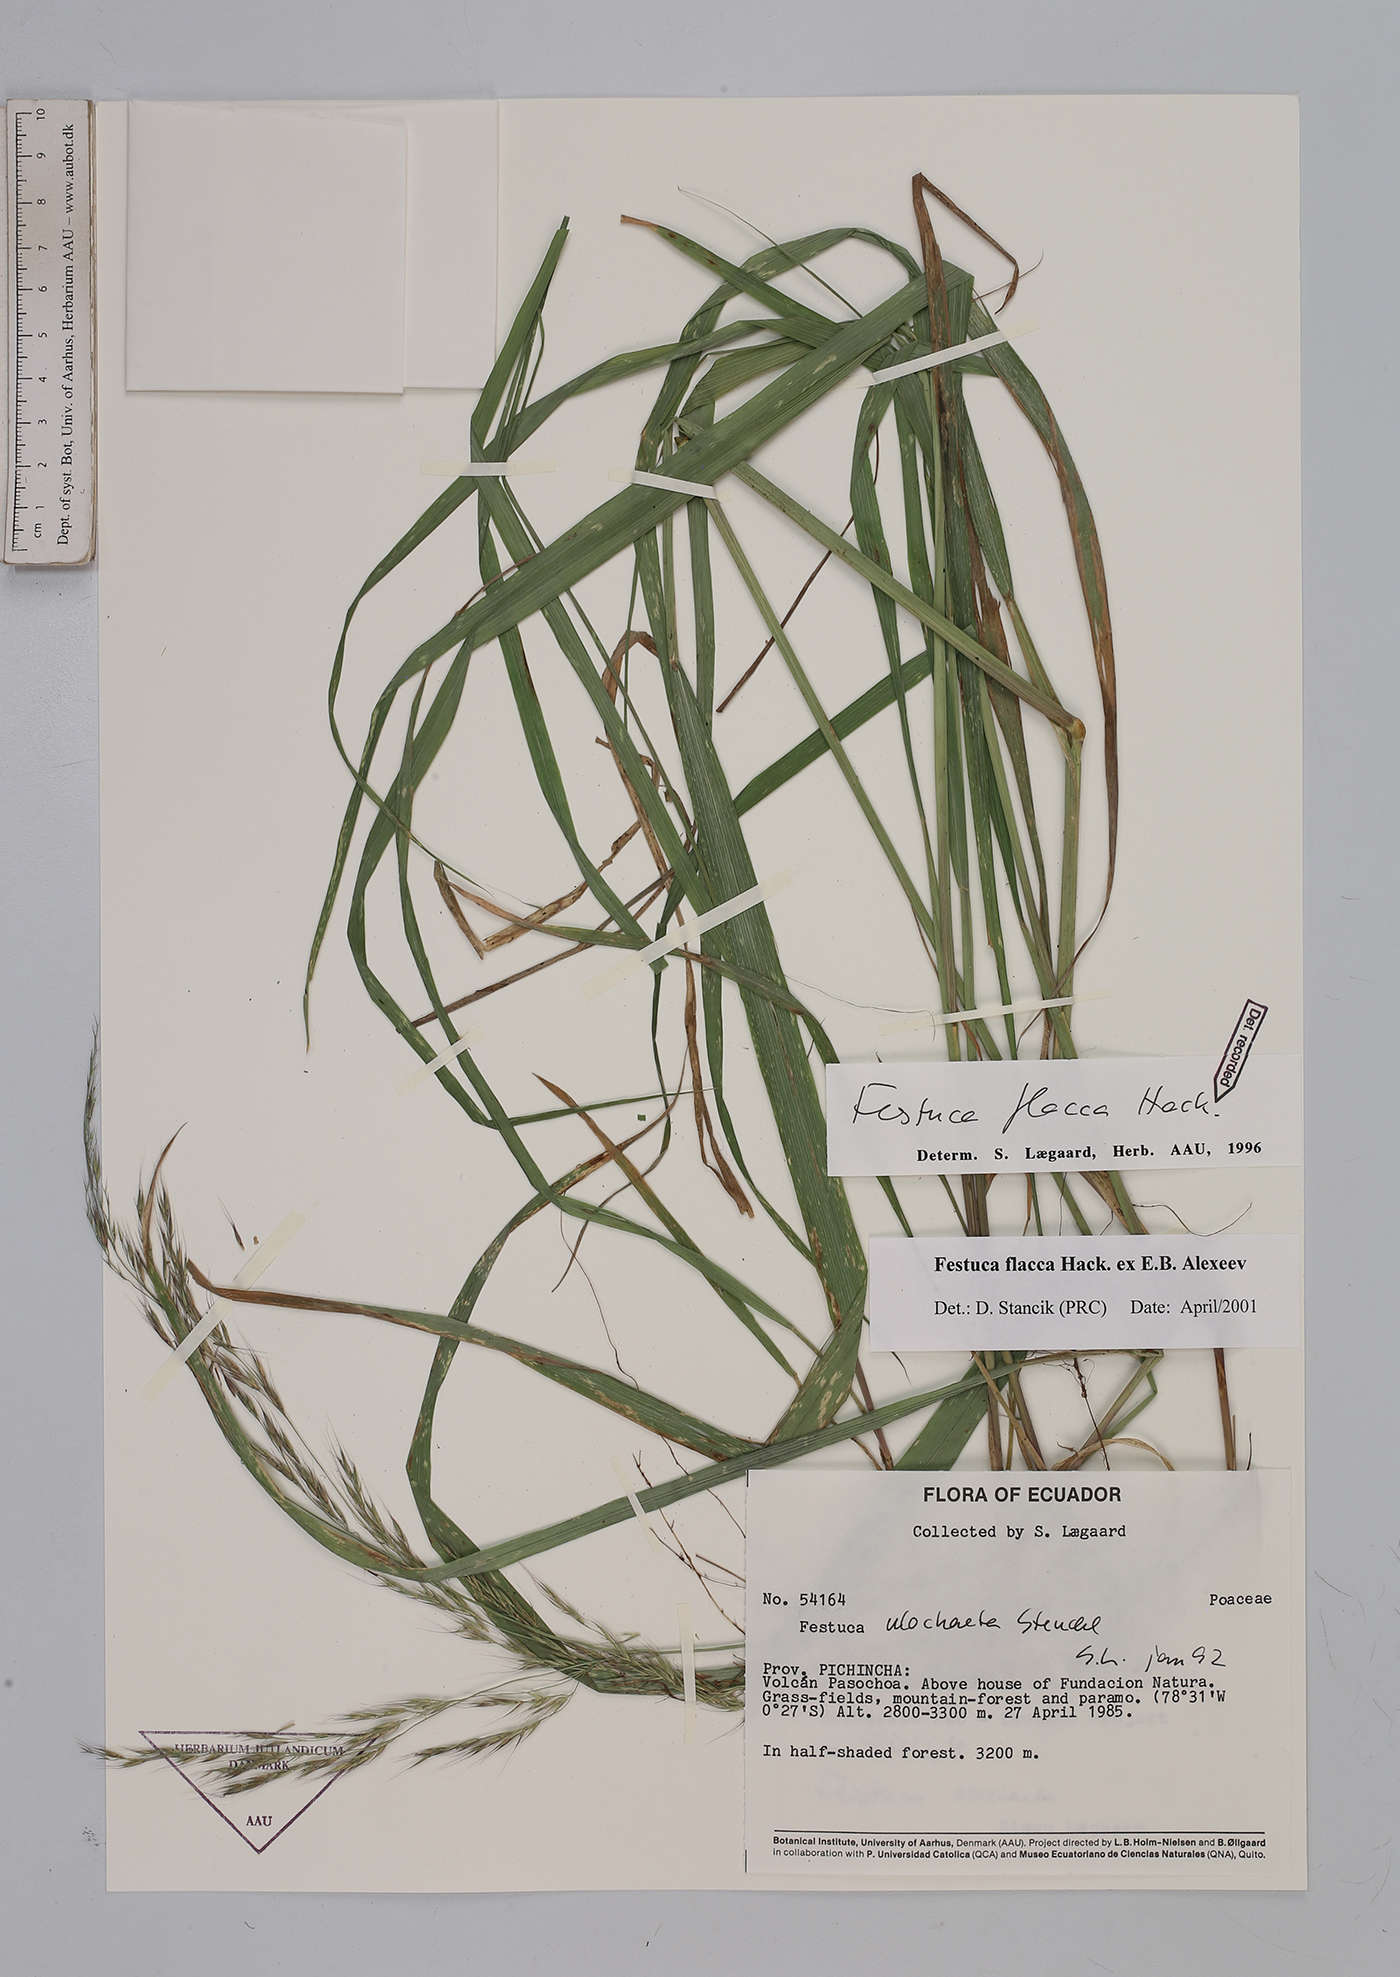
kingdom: Plantae
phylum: Tracheophyta
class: Liliopsida
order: Poales
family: Poaceae
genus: Festuca
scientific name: Festuca flacca
